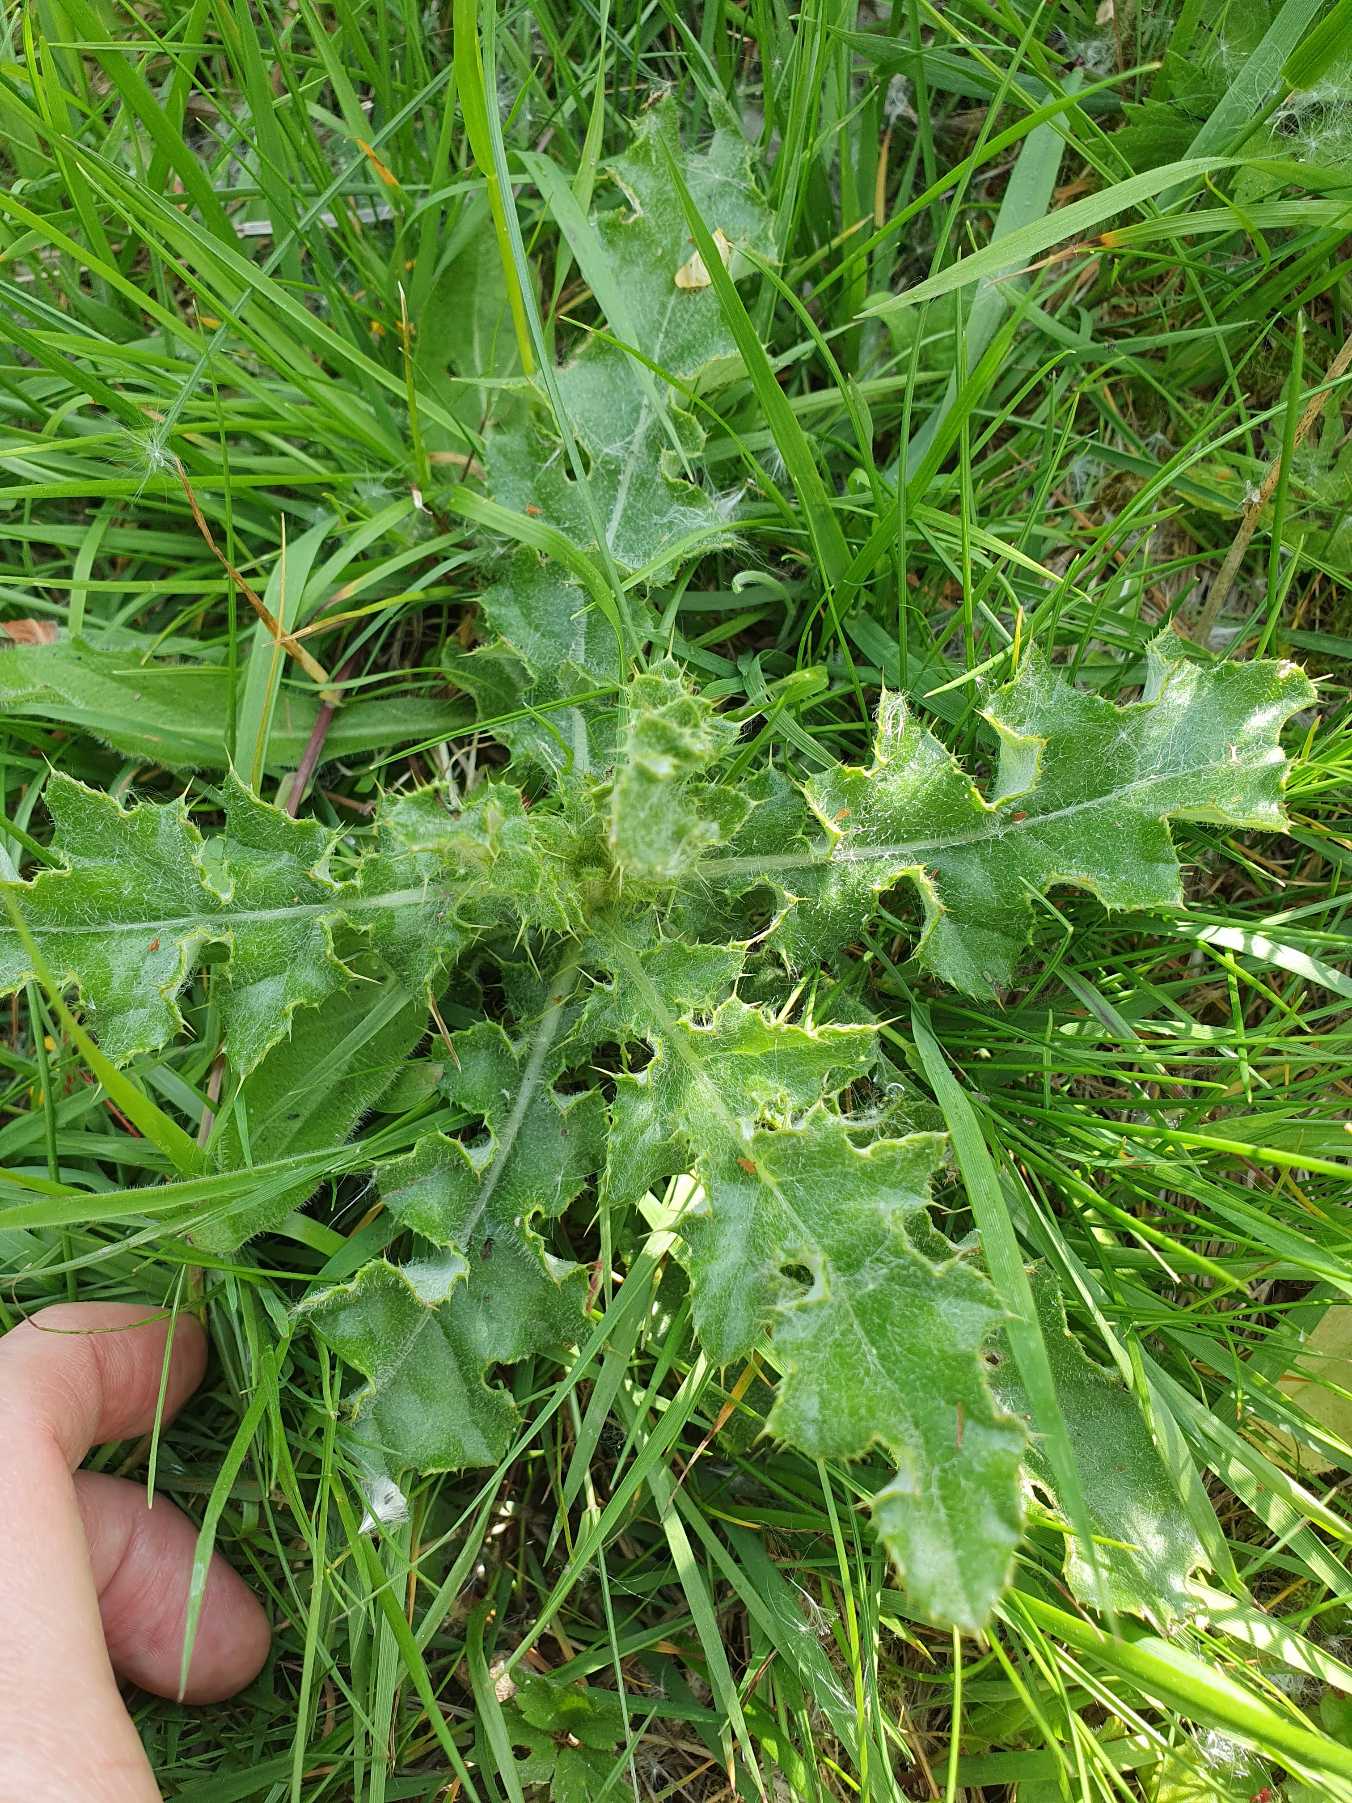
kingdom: Plantae
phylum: Tracheophyta
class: Magnoliopsida
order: Asterales
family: Asteraceae
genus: Cirsium
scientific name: Cirsium arvense
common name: Ager-tidsel
